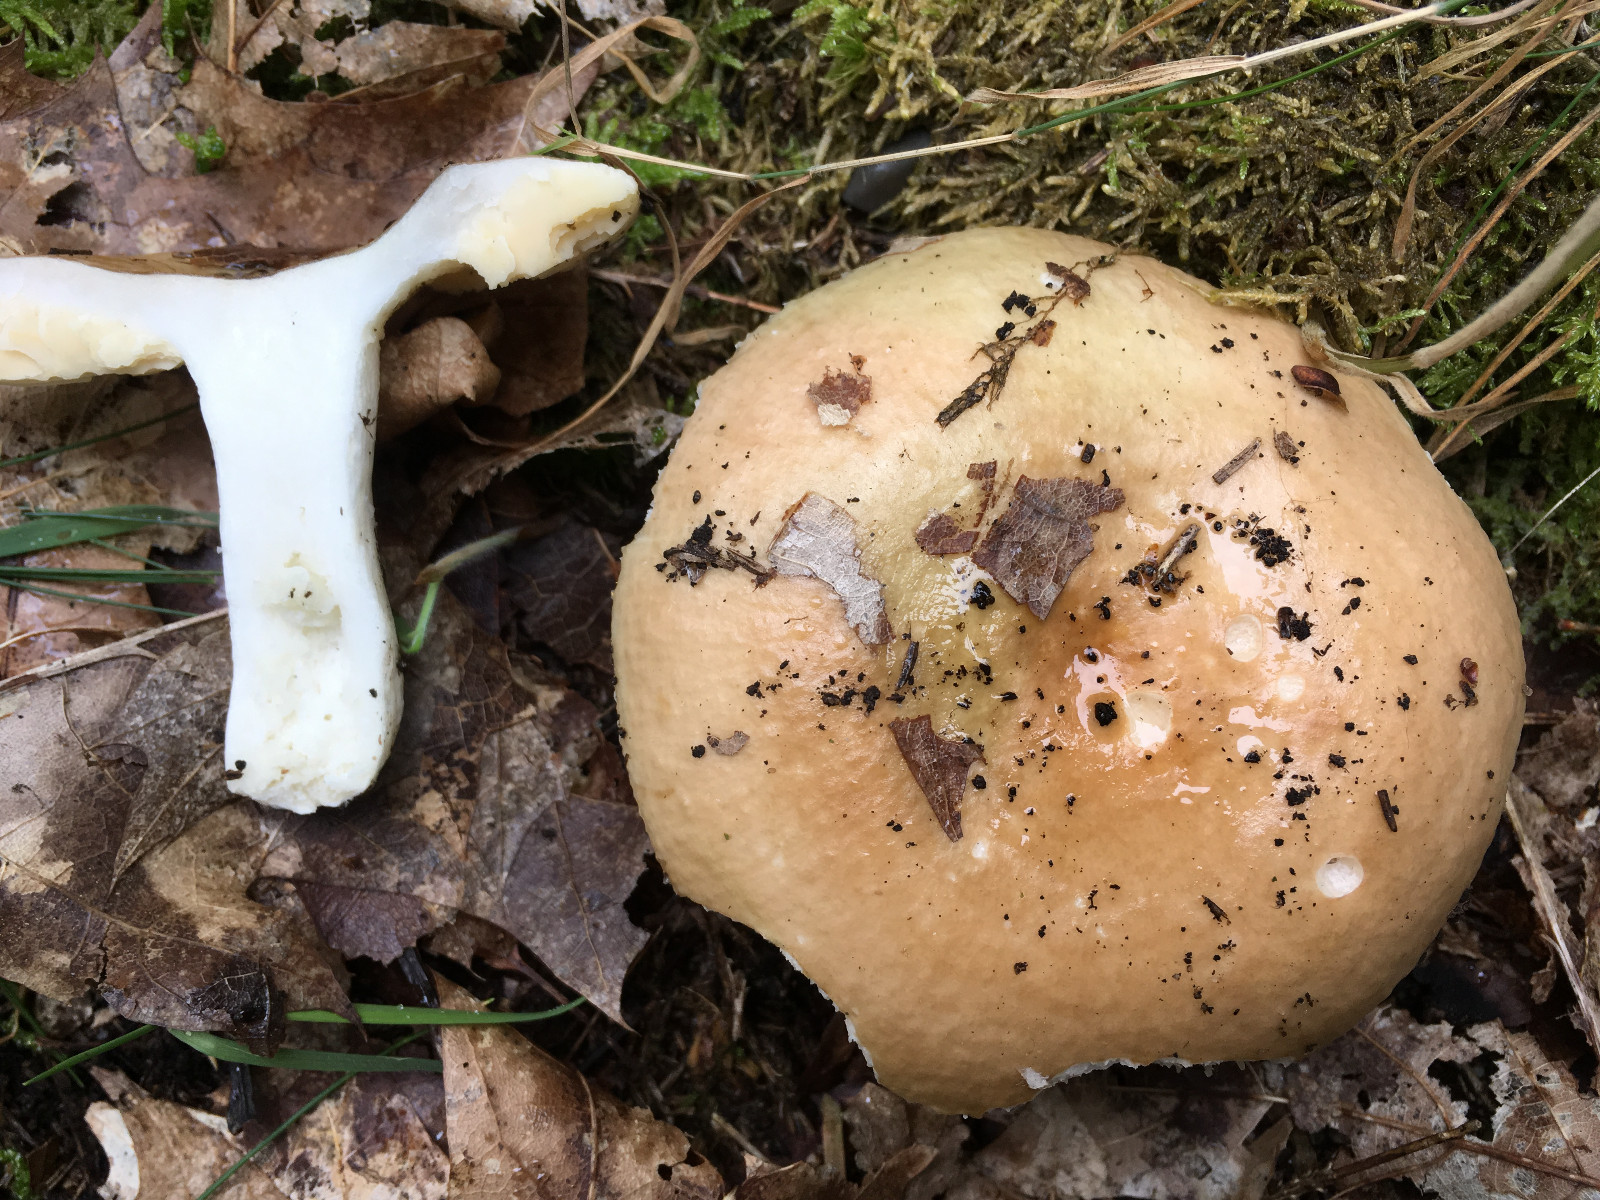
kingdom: Fungi
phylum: Basidiomycota
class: Agaricomycetes
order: Russulales
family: Russulaceae
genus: Russula
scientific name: Russula
